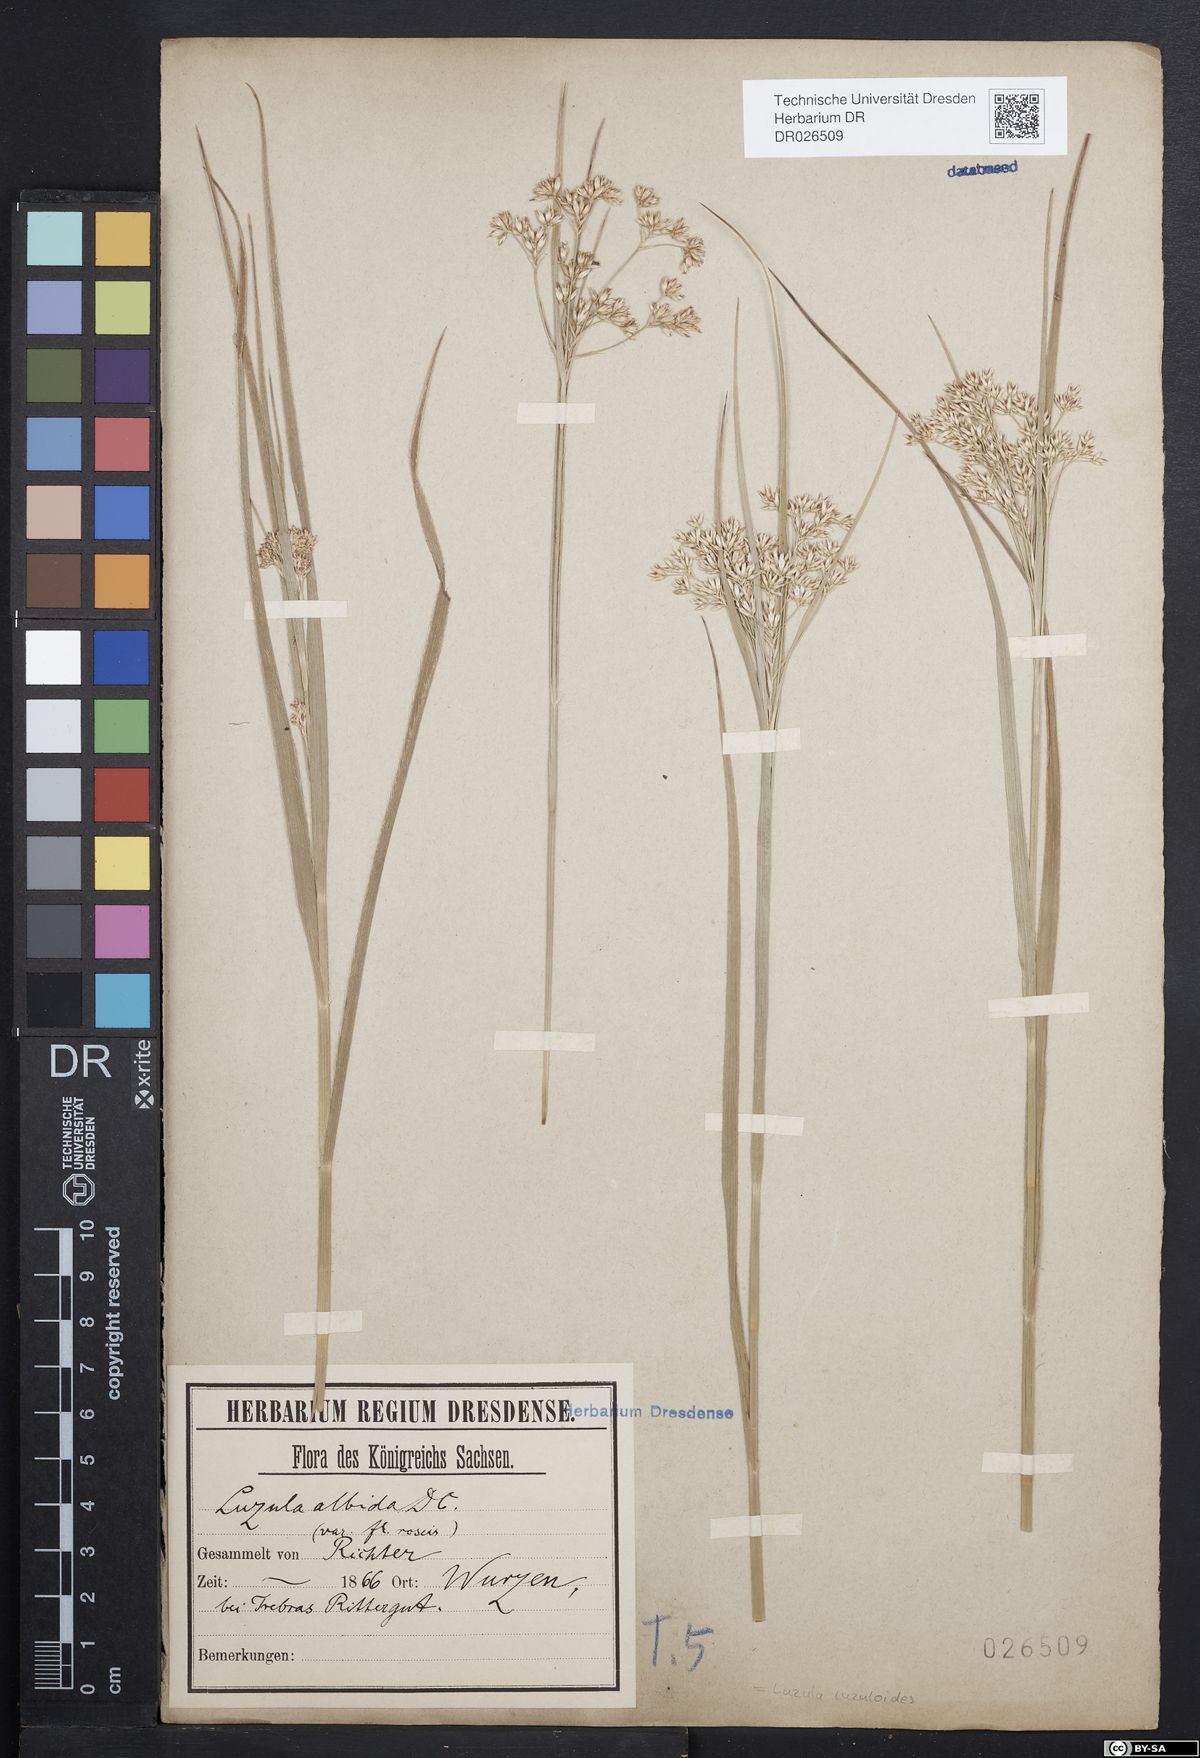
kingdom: Plantae
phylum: Tracheophyta
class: Liliopsida
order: Poales
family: Juncaceae
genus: Luzula
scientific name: Luzula luzuloides
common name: White wood-rush
